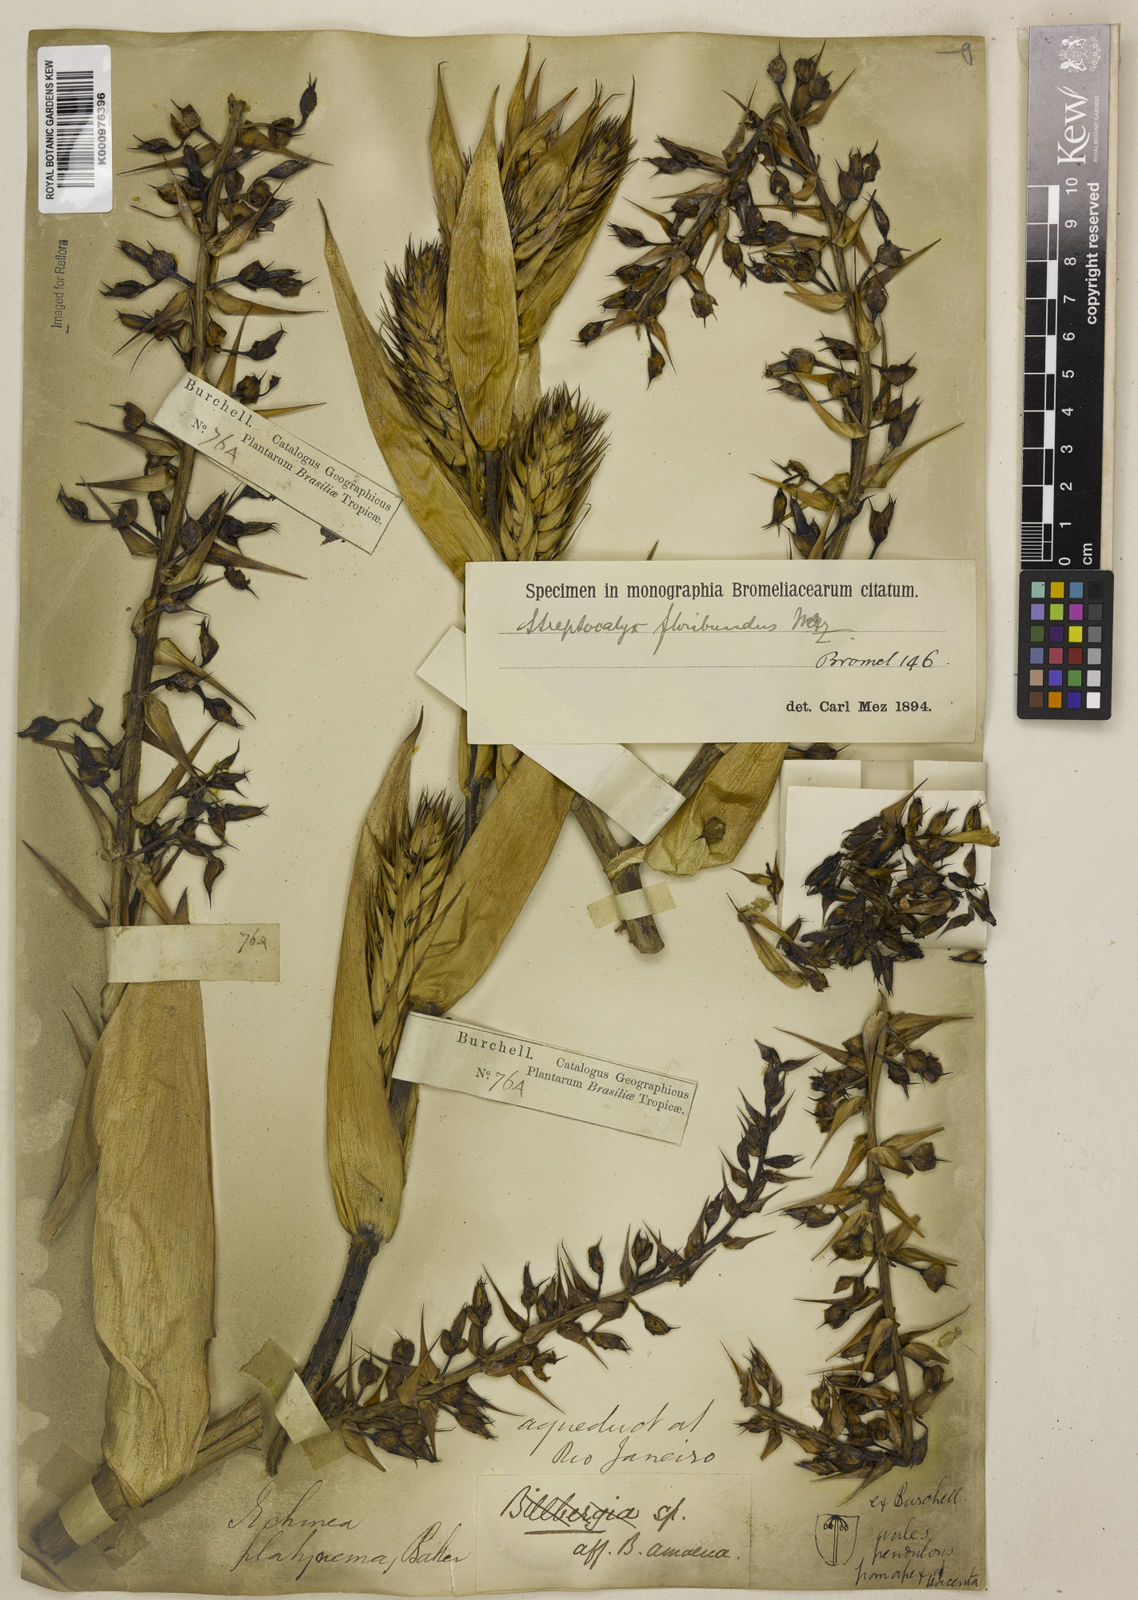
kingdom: Plantae
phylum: Tracheophyta
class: Liliopsida
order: Poales
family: Bromeliaceae
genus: Aechmea
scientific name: Aechmea floribunda
